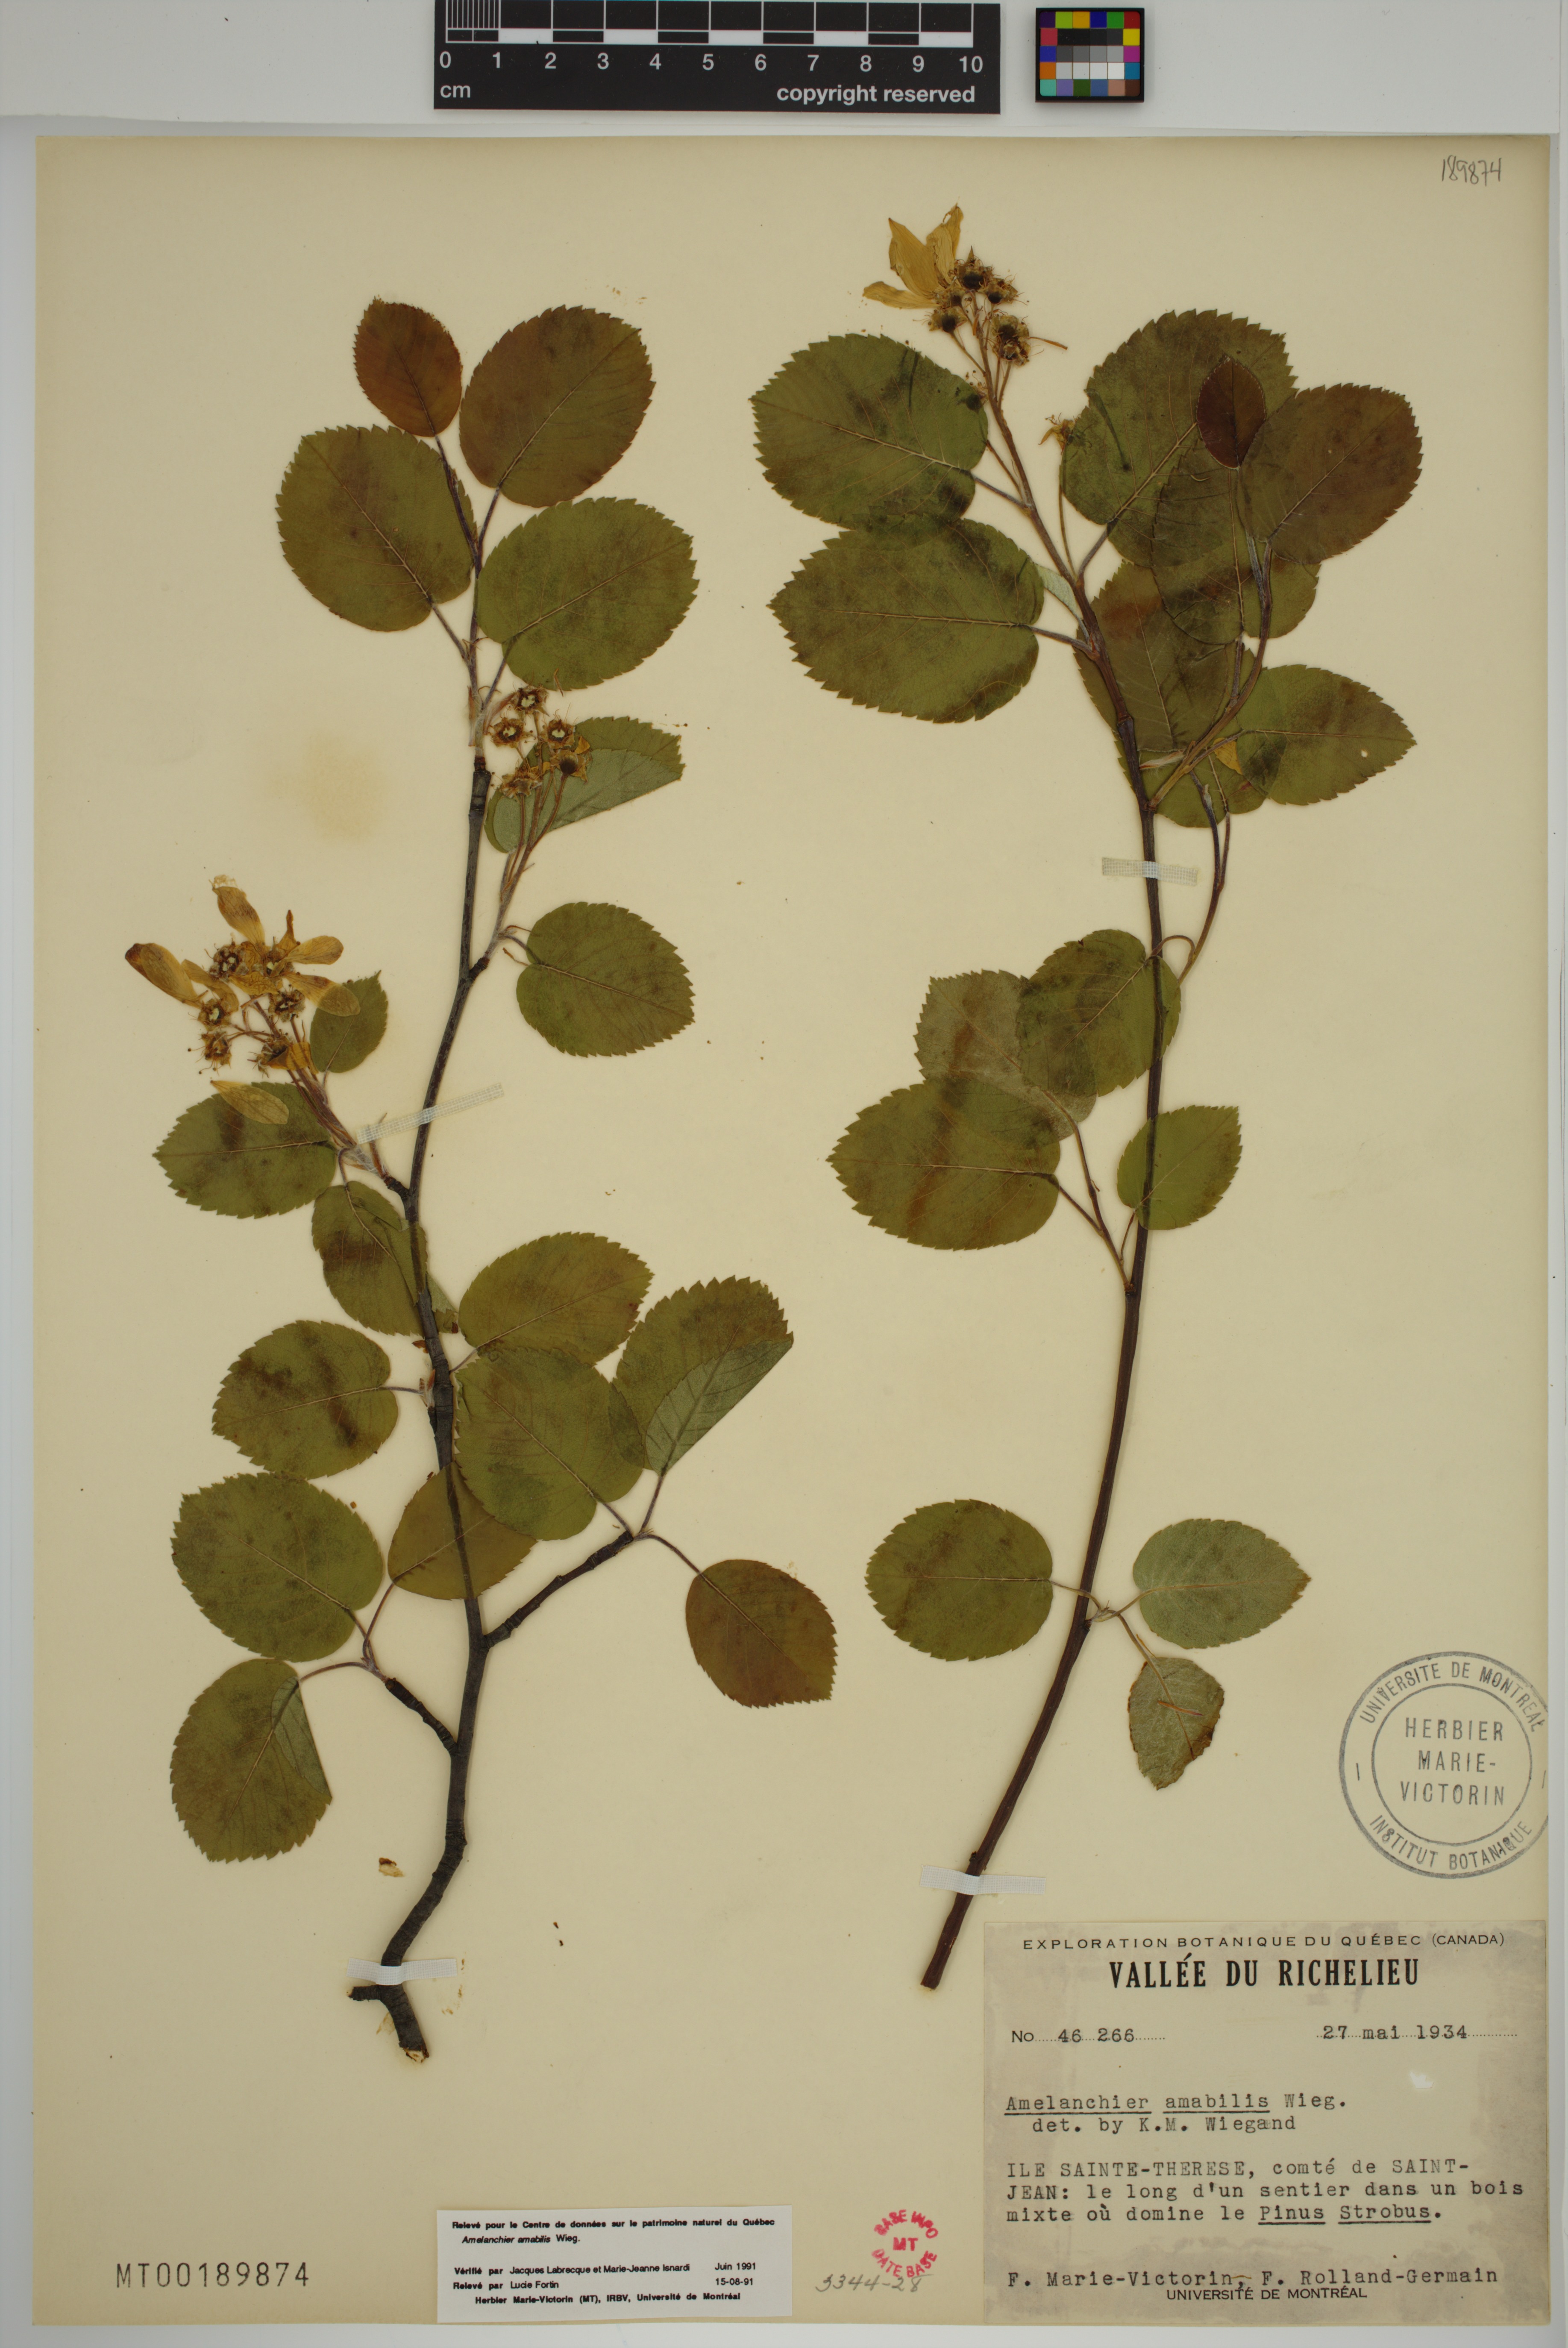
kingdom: Plantae
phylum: Tracheophyta
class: Magnoliopsida
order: Rosales
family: Rosaceae
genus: Amelanchier
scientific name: Amelanchier sanguinea
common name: Huron serviceberry
